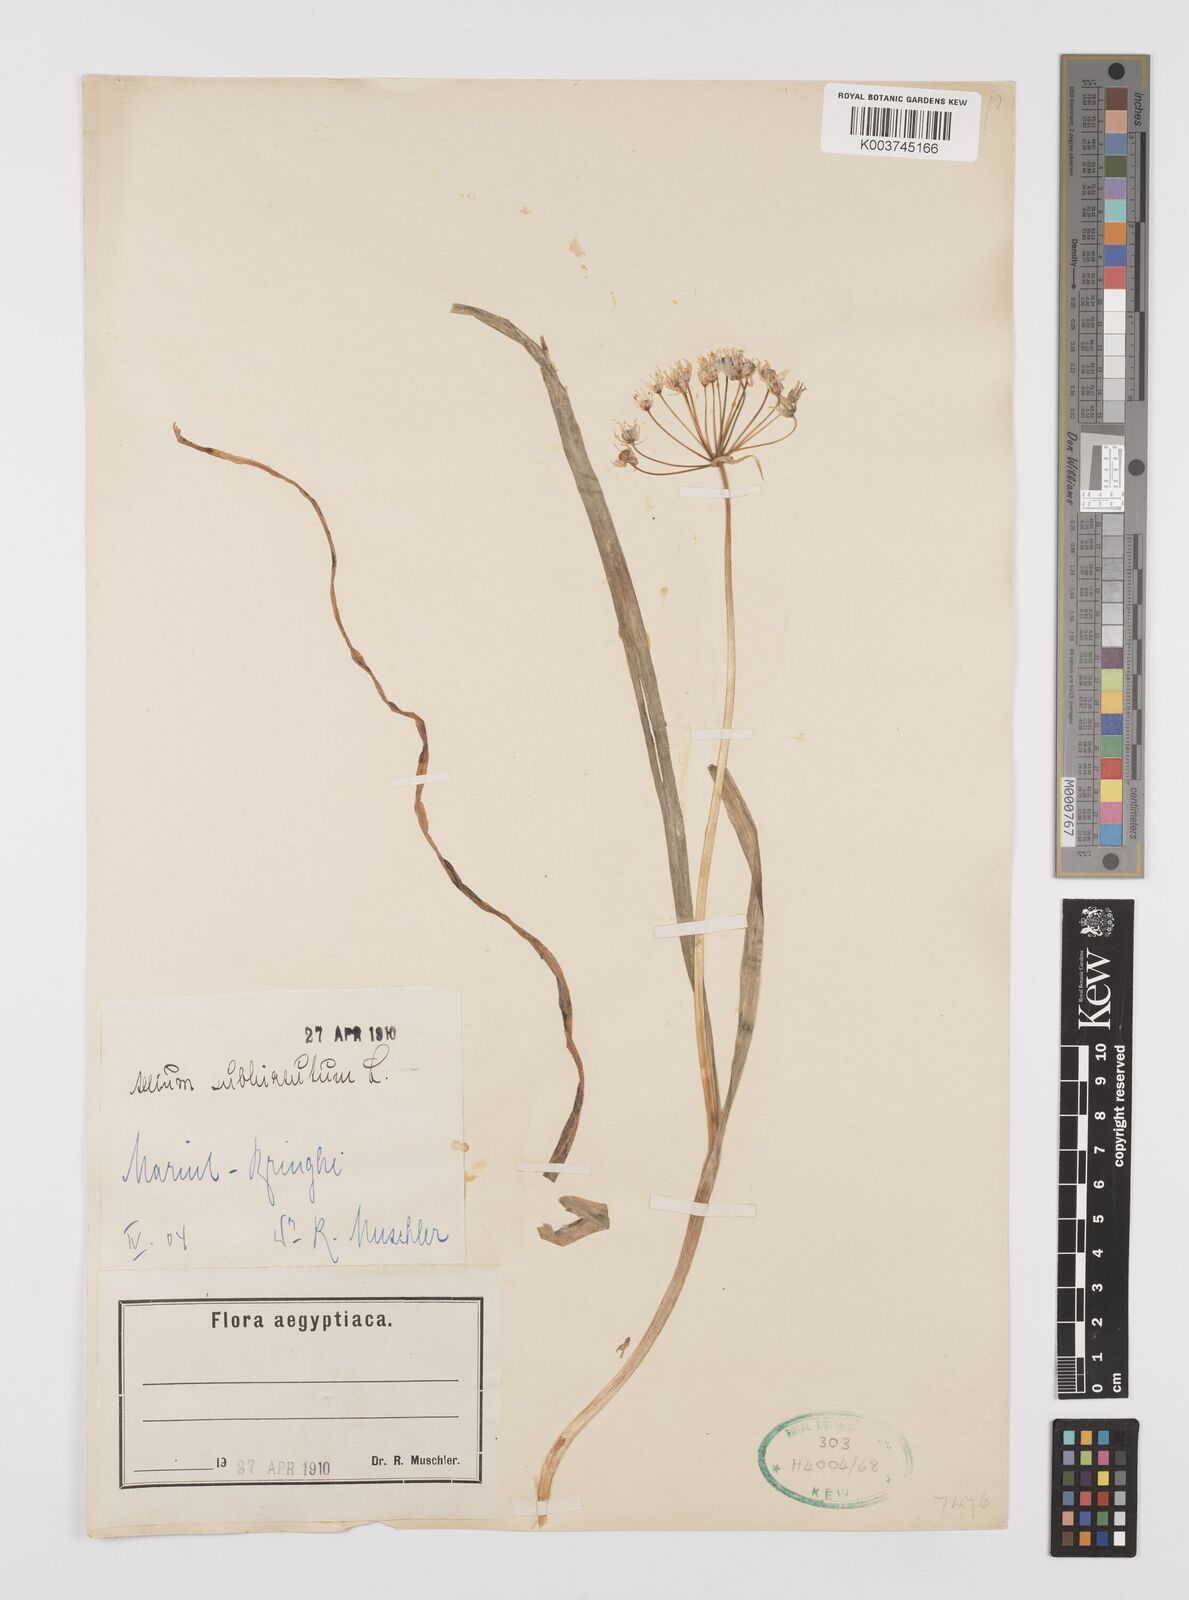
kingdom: Plantae
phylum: Tracheophyta
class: Liliopsida
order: Asparagales
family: Amaryllidaceae
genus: Allium
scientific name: Allium subhirsutum
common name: Hairy garlic
